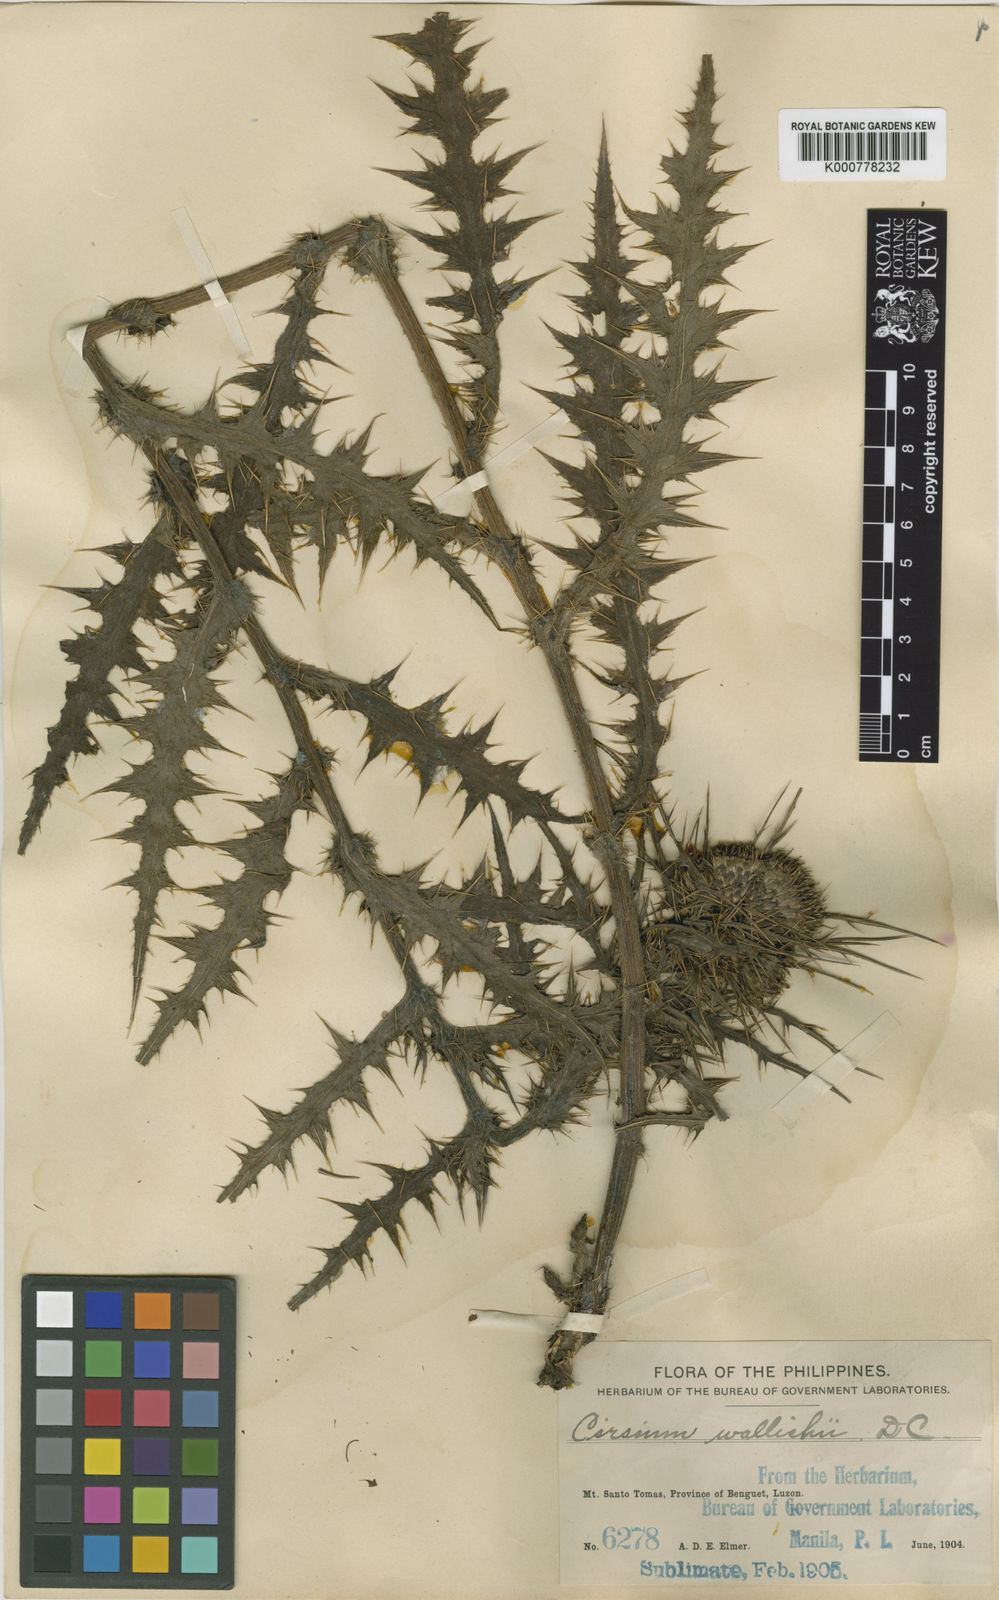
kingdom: Plantae
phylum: Tracheophyta
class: Magnoliopsida
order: Asterales
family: Asteraceae
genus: Cirsium
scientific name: Cirsium luzoniense
